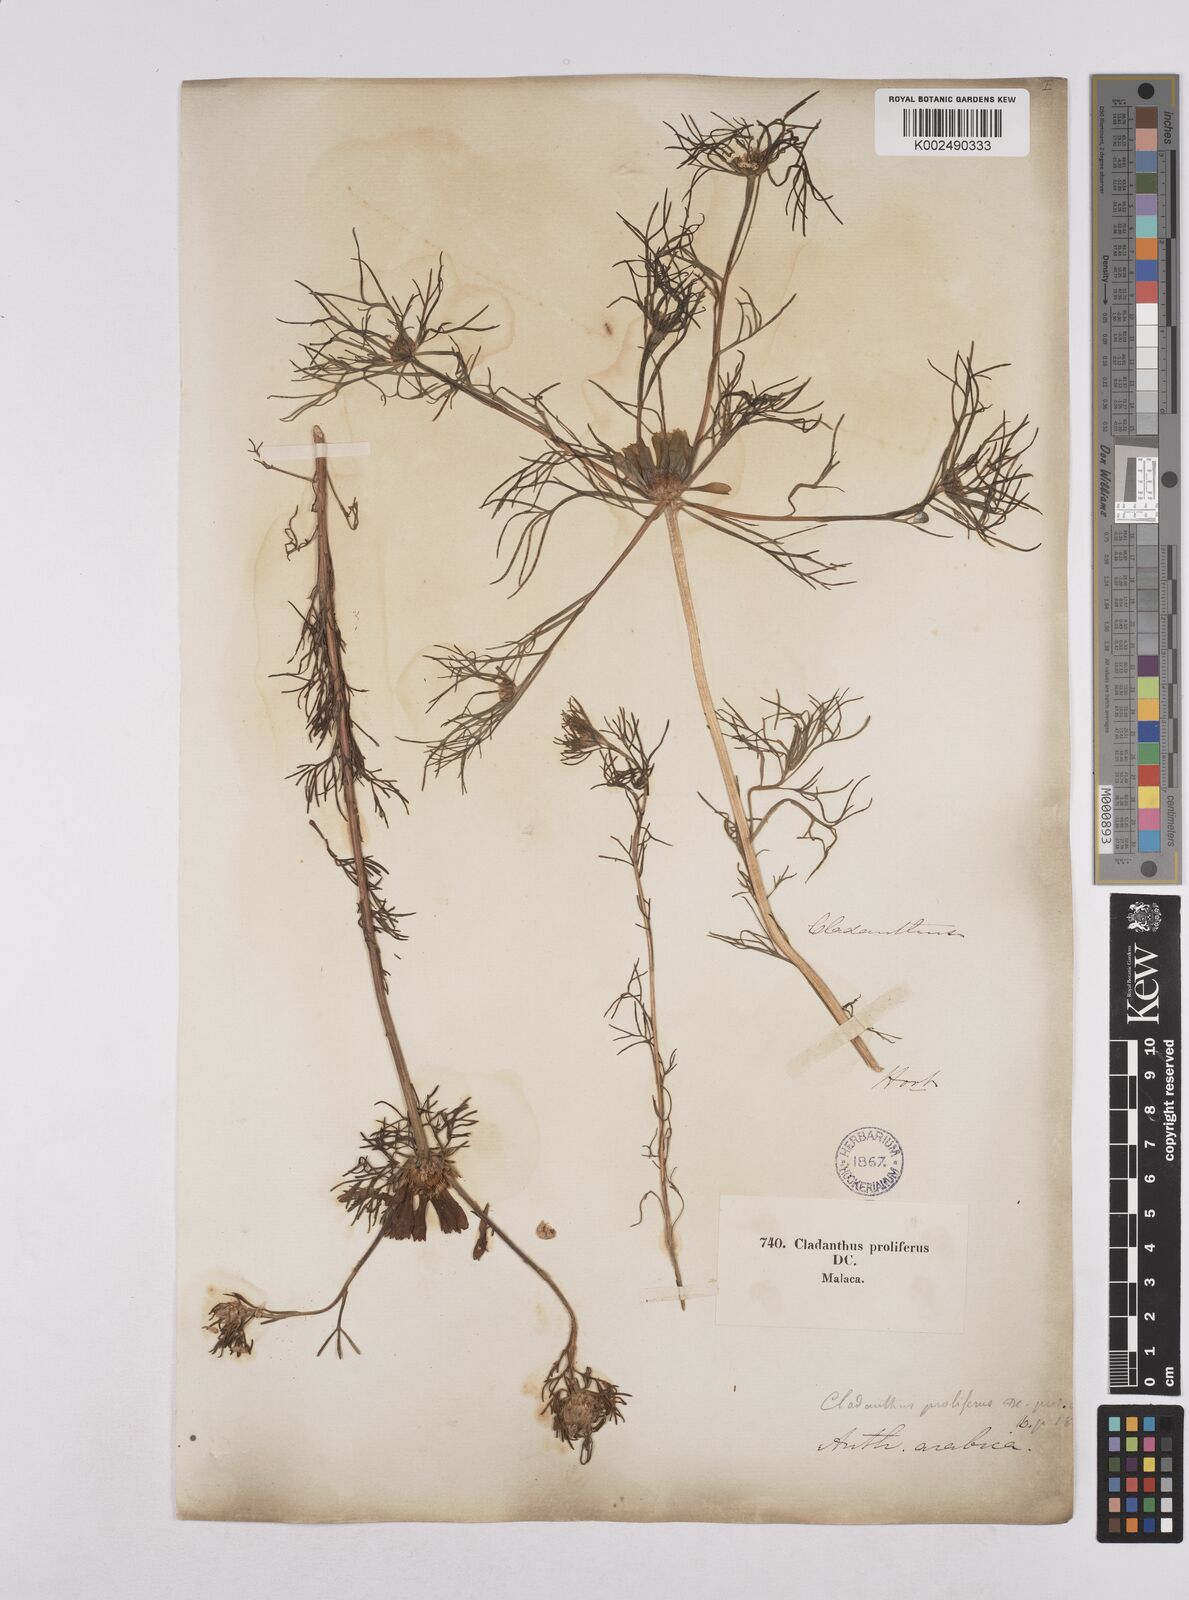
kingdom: Plantae
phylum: Tracheophyta
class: Magnoliopsida
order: Asterales
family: Asteraceae
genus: Cladanthus
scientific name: Cladanthus arabicus
